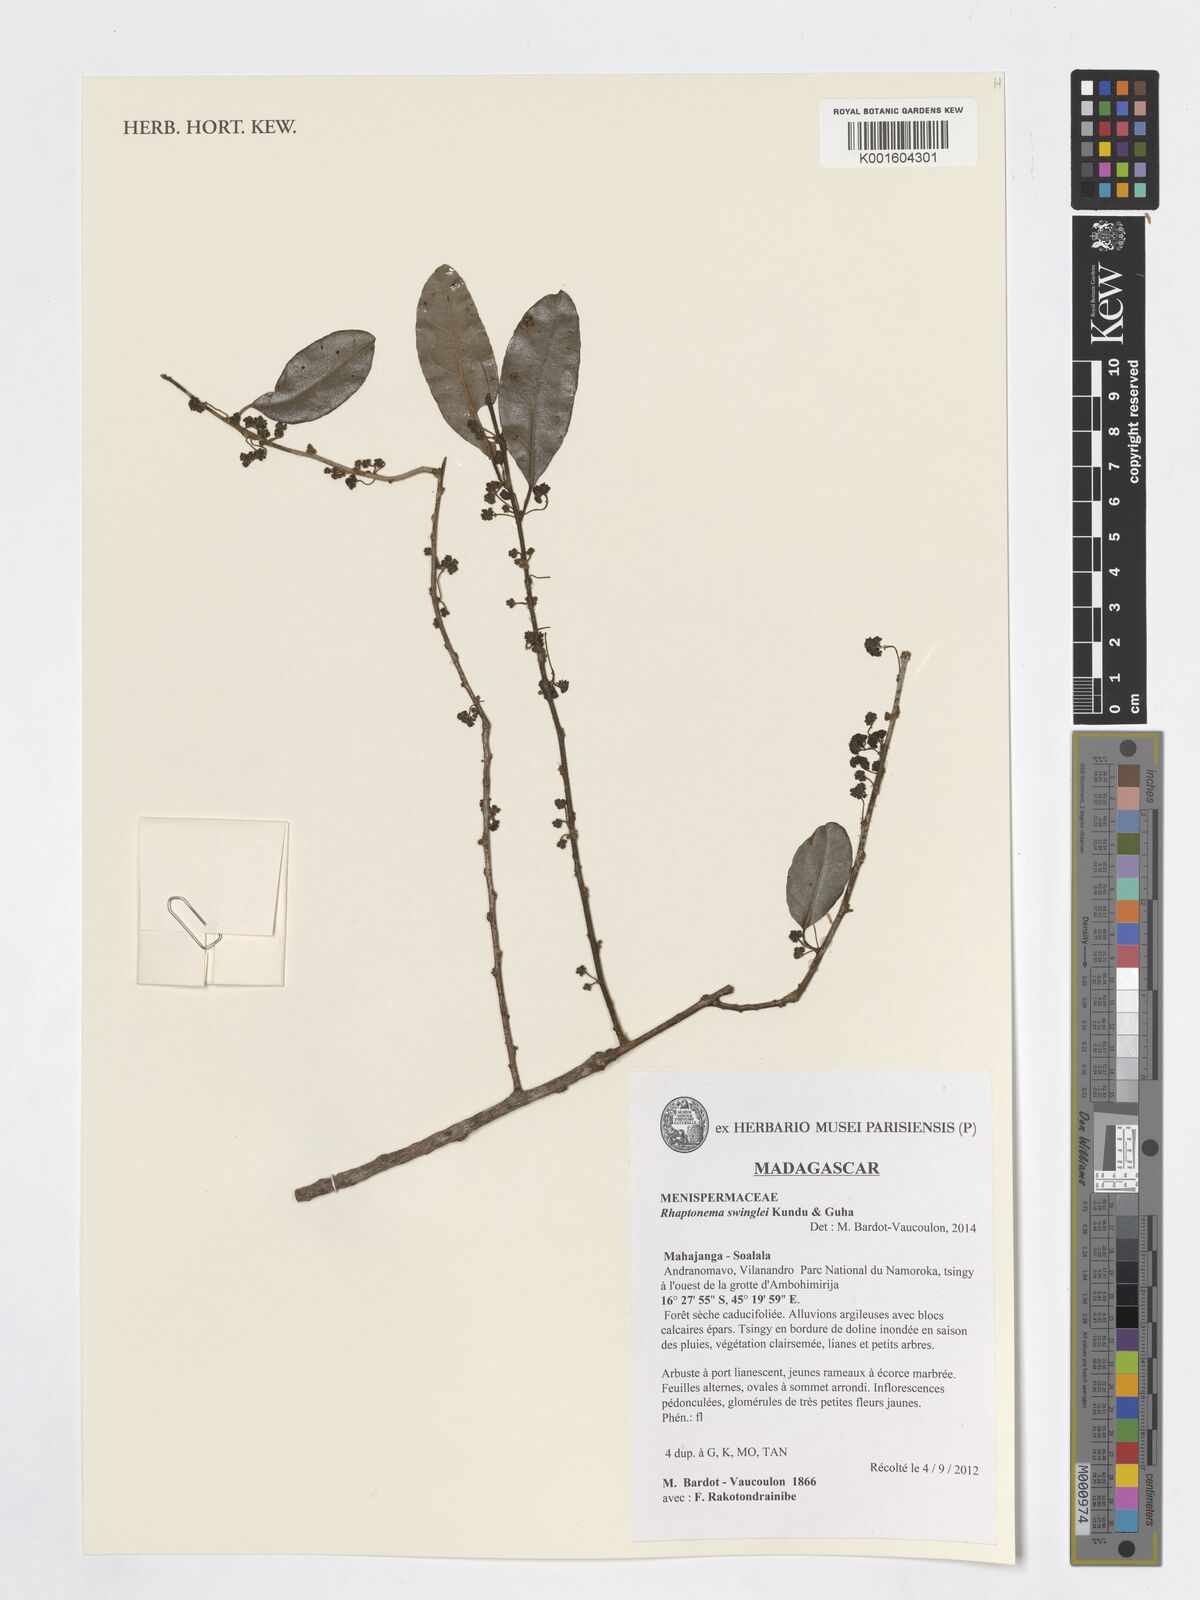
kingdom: Plantae
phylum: Tracheophyta
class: Magnoliopsida
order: Ranunculales
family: Menispermaceae
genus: Rhaptonema
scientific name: Rhaptonema swinglei
